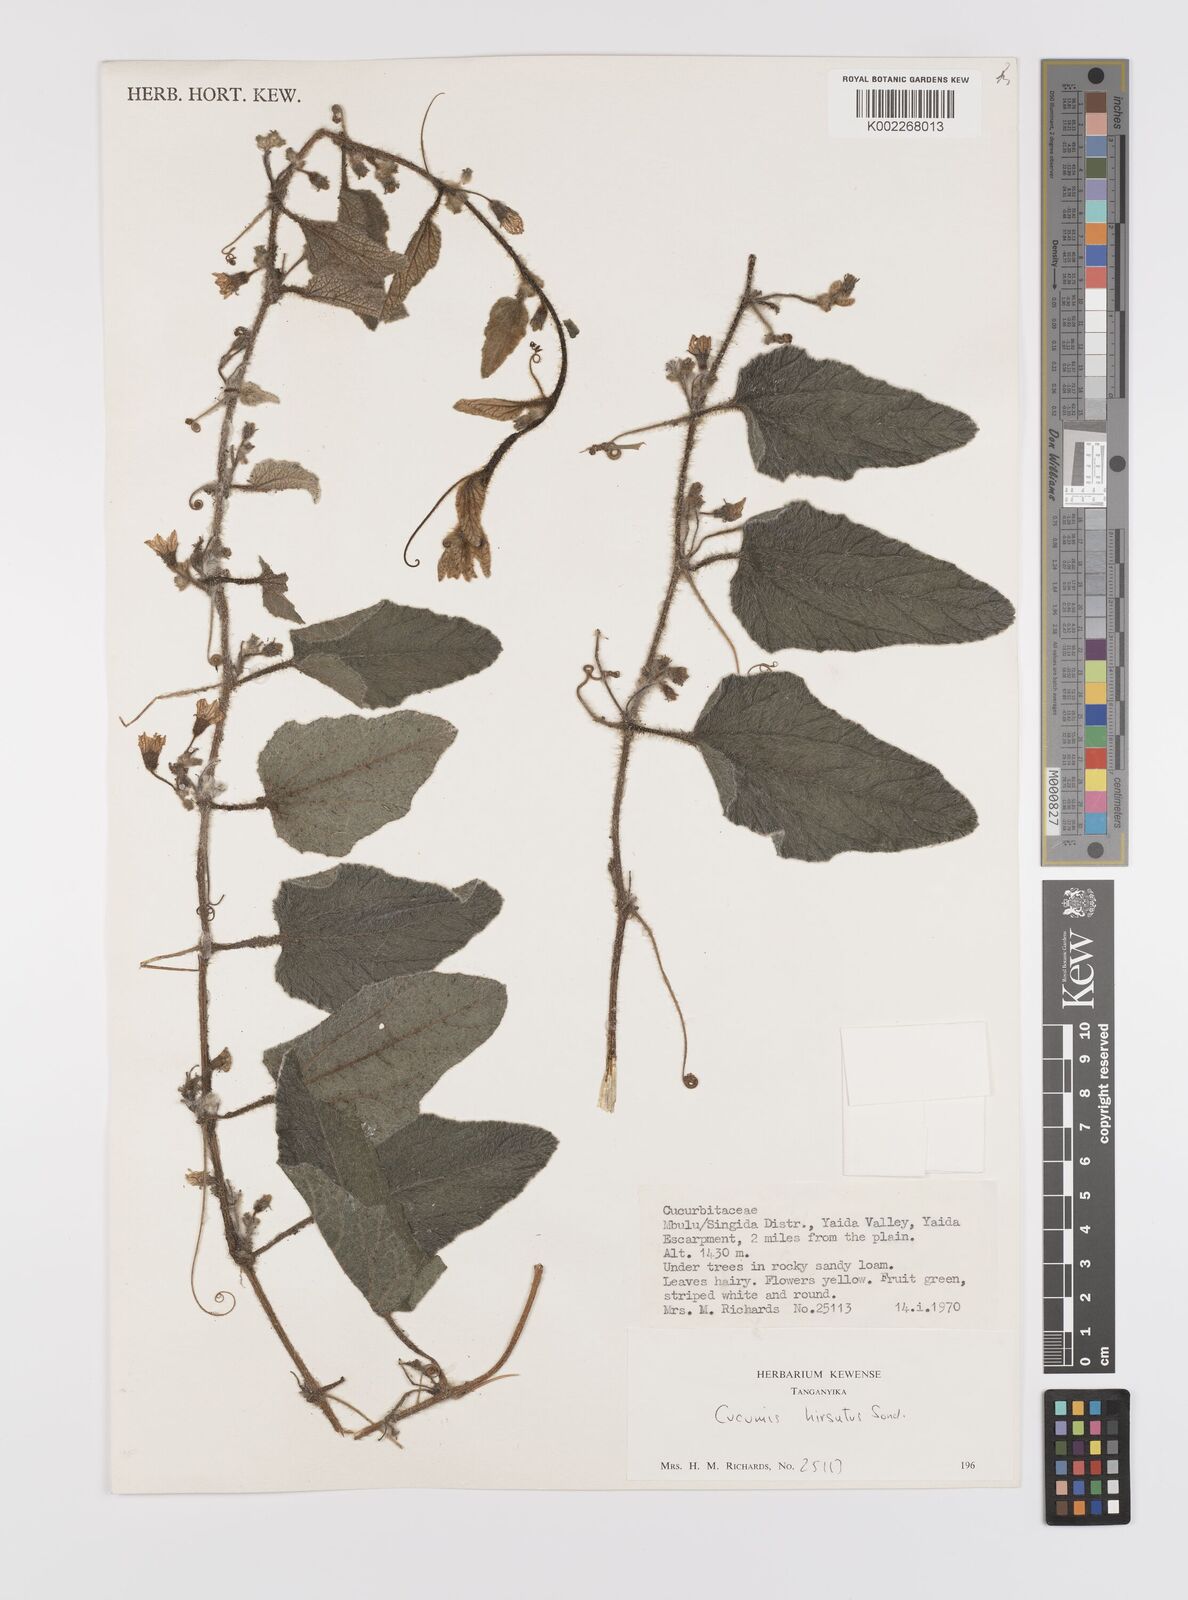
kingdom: Plantae
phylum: Tracheophyta
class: Magnoliopsida
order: Cucurbitales
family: Cucurbitaceae
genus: Cucumis
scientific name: Cucumis hirsutus
